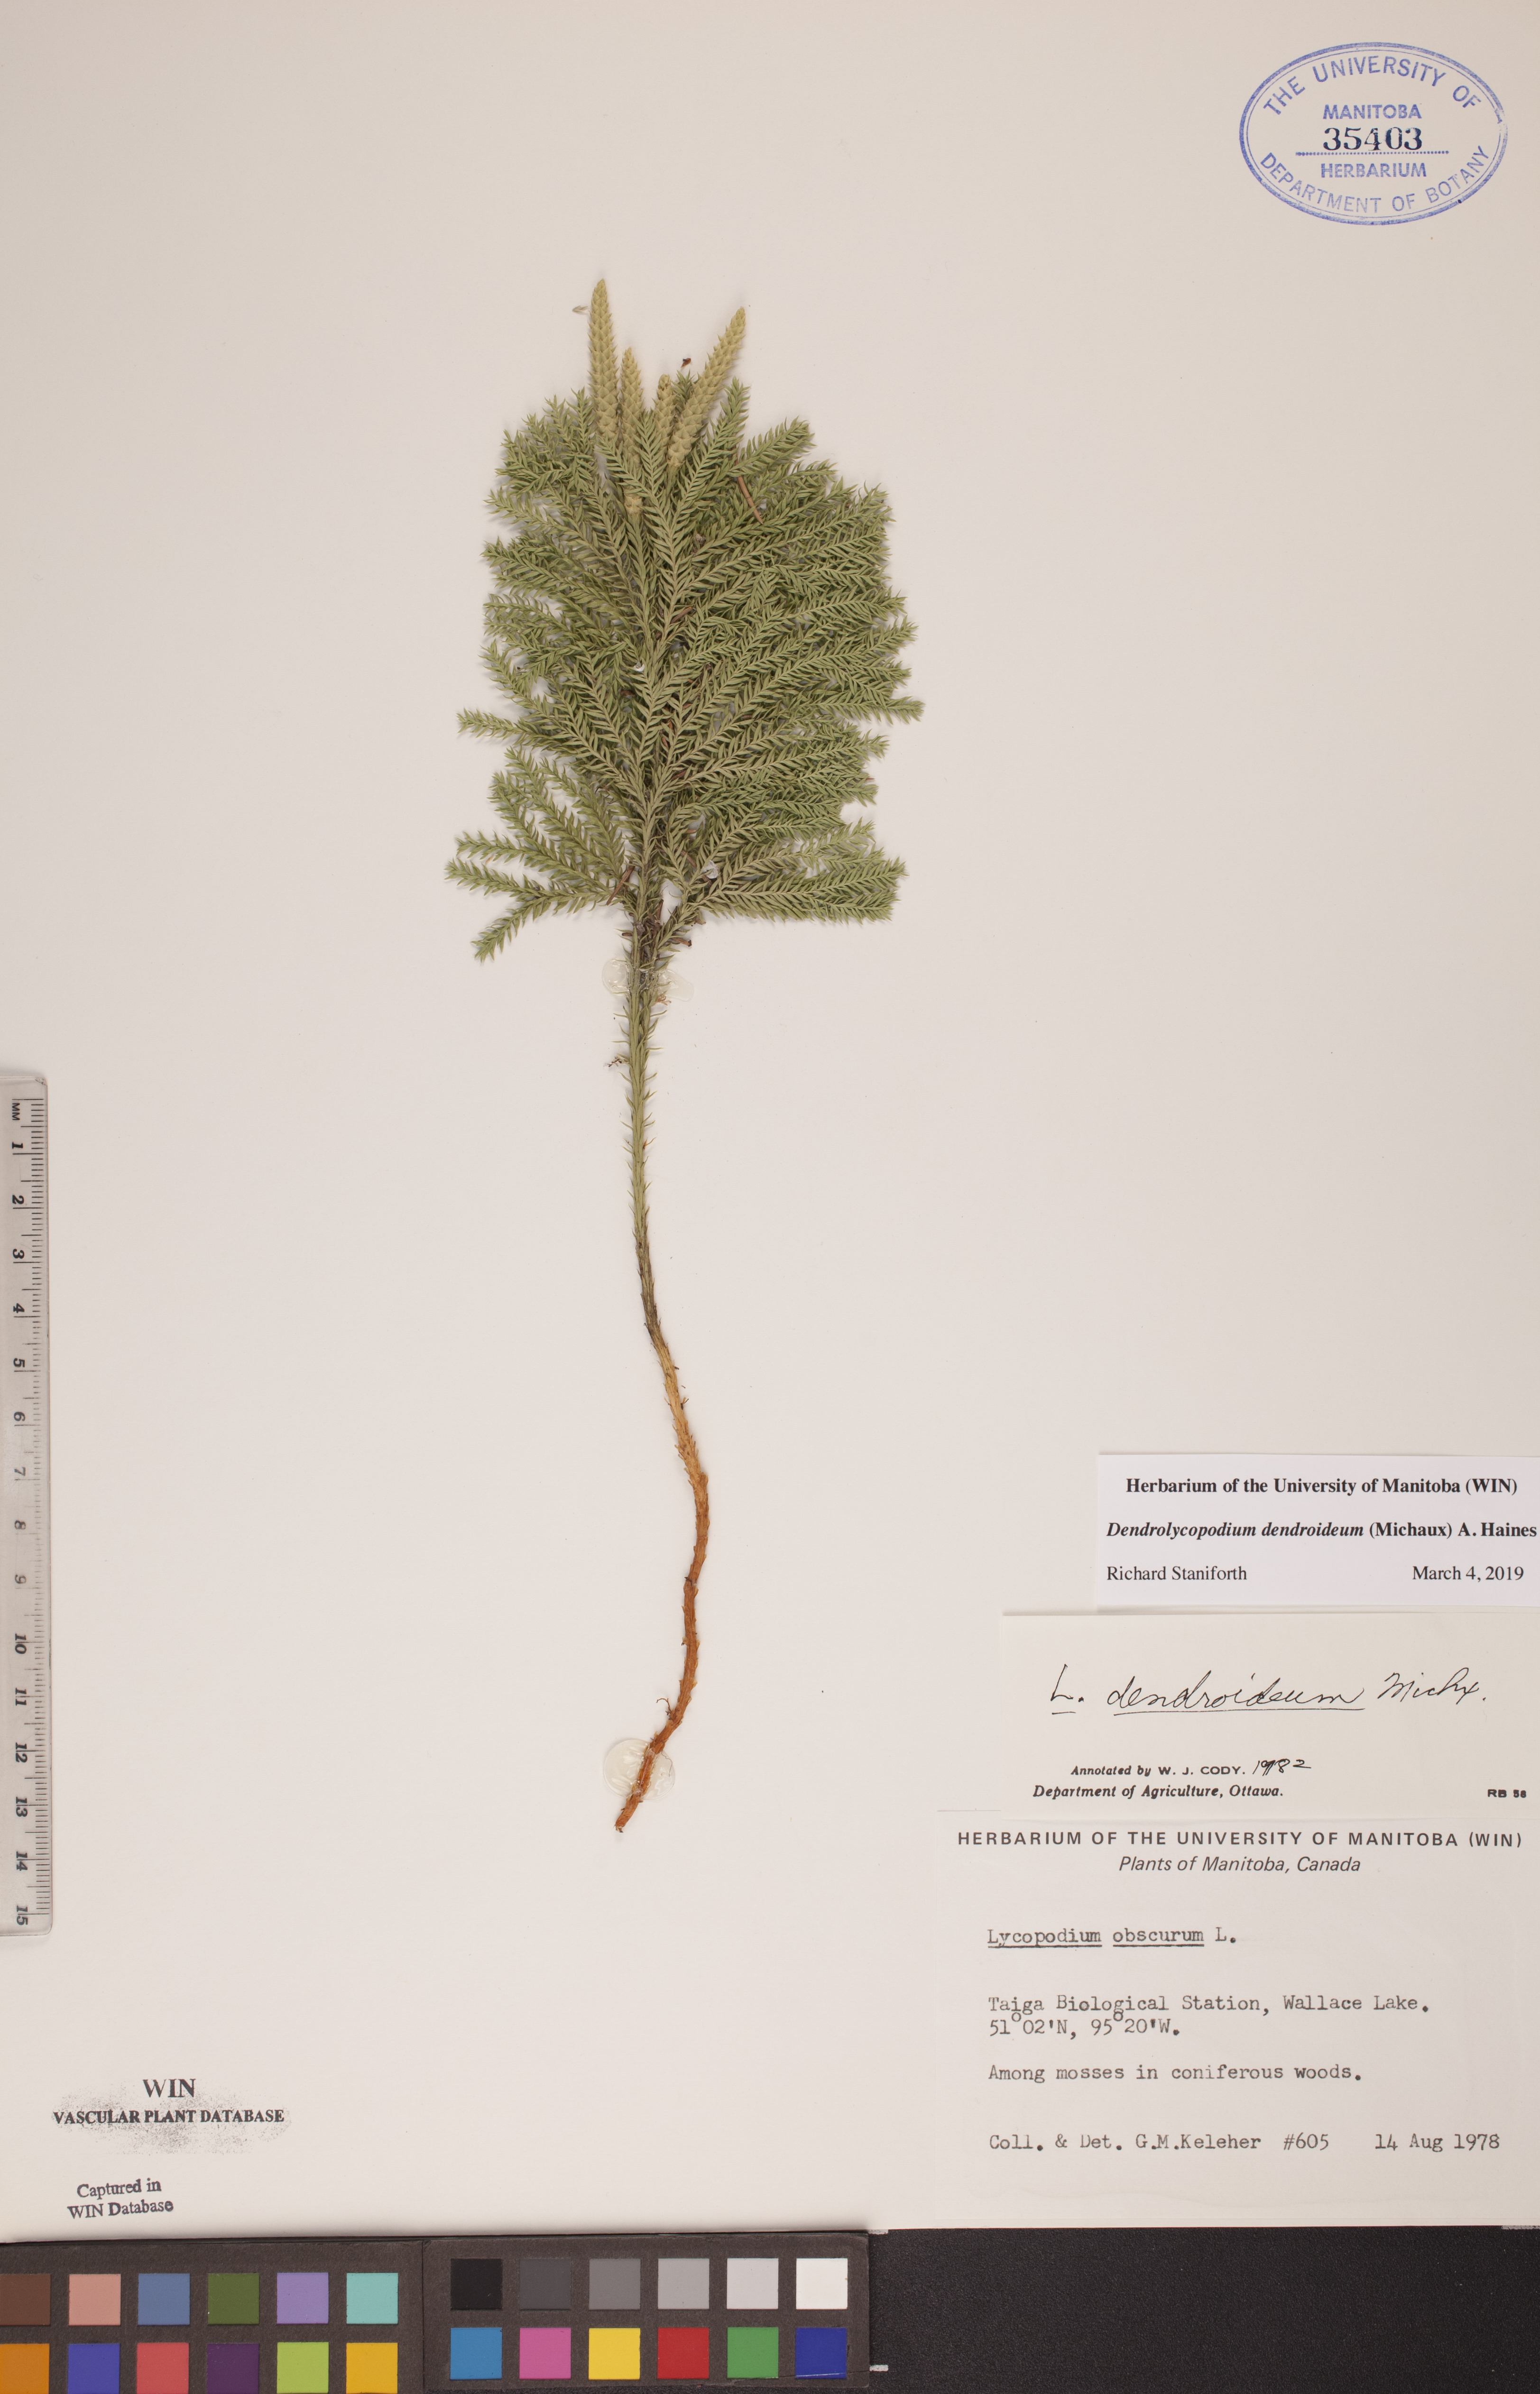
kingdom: Plantae
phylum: Tracheophyta
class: Lycopodiopsida
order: Lycopodiales
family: Lycopodiaceae
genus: Dendrolycopodium
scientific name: Dendrolycopodium dendroideum
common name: Northern tree-clubmoss
